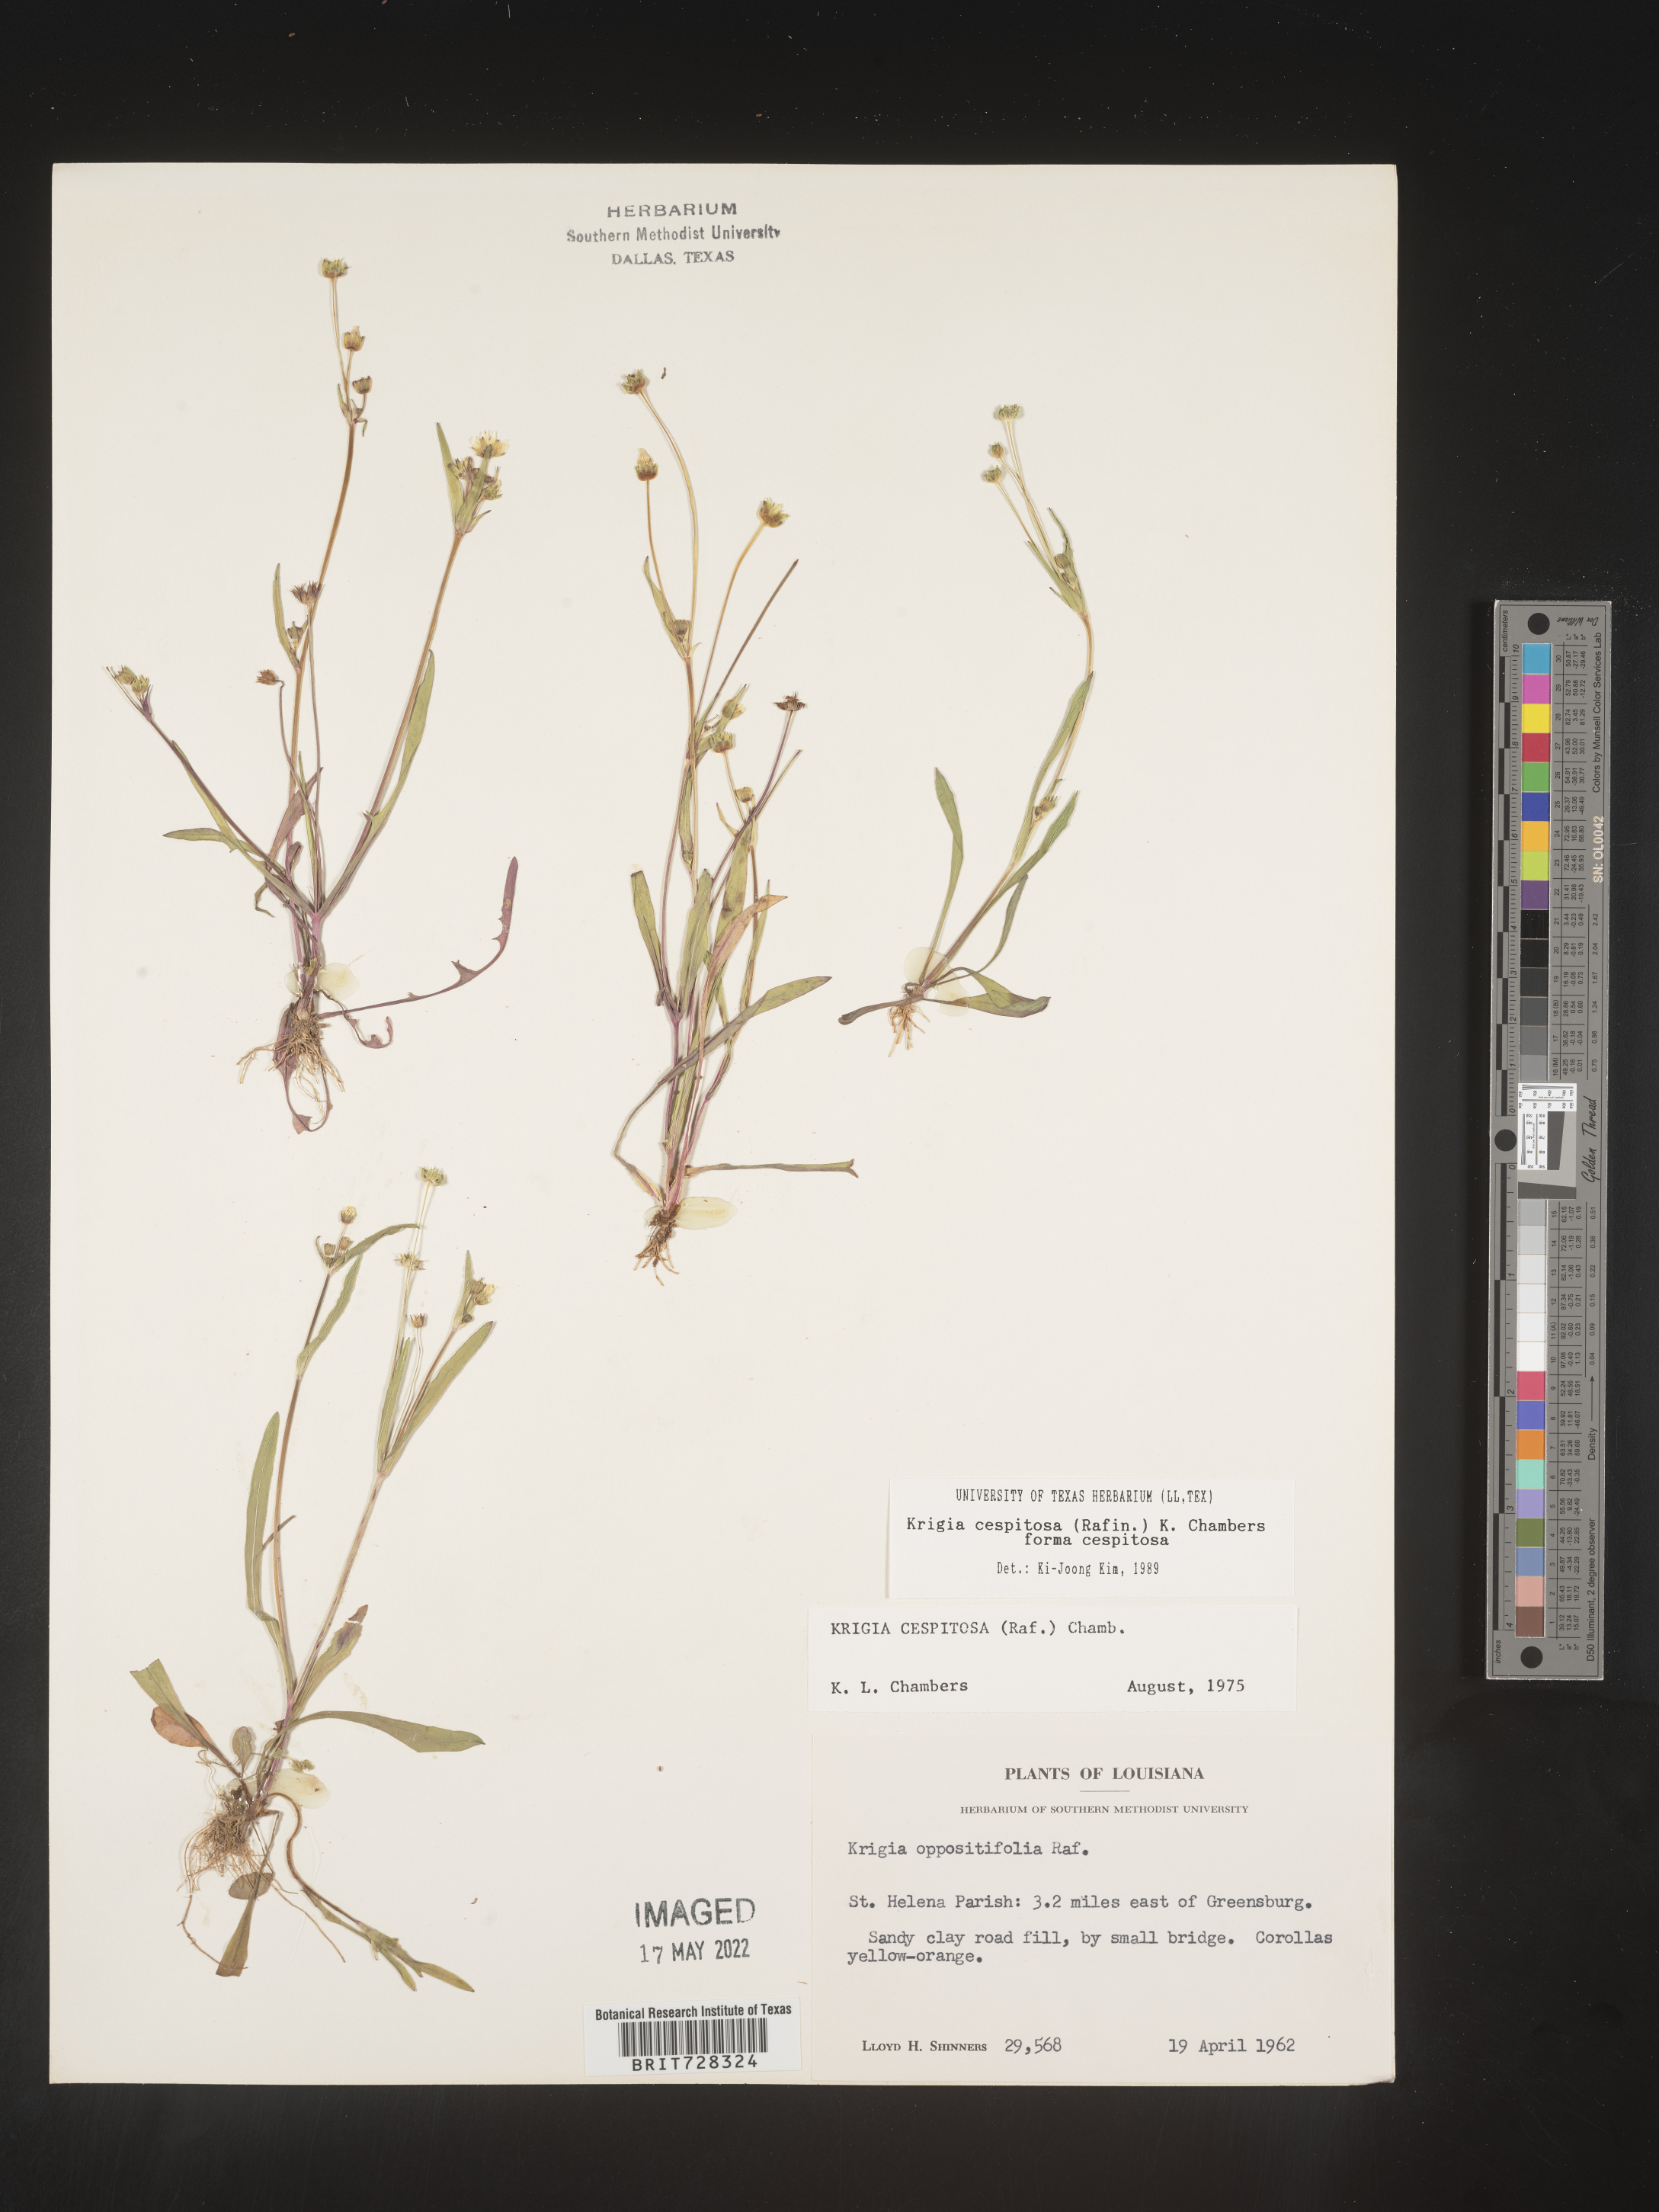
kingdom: Plantae
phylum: Tracheophyta
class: Magnoliopsida
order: Asterales
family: Asteraceae
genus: Krigia
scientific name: Krigia caespitosa
